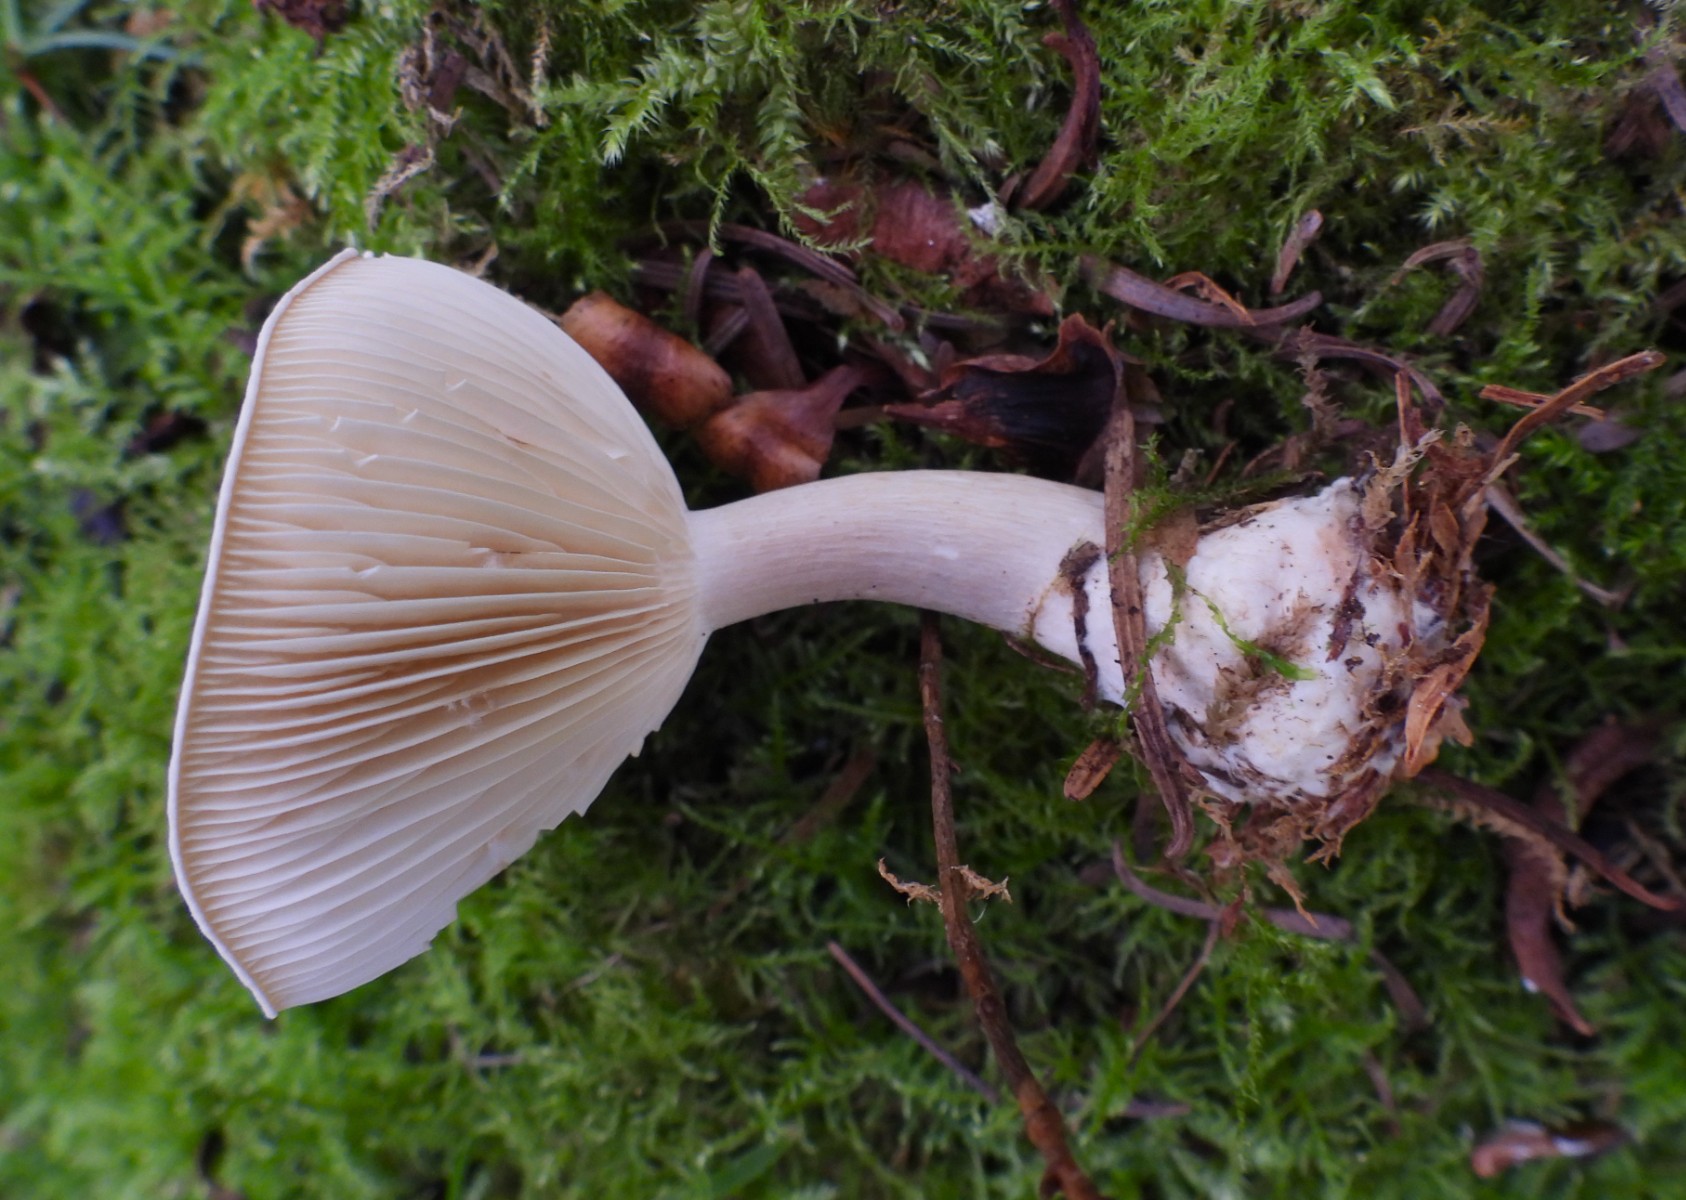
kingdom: Fungi
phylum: Basidiomycota
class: Agaricomycetes
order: Agaricales
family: Hygrophoraceae
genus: Ampulloclitocybe
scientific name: Ampulloclitocybe clavipes
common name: køllefod
